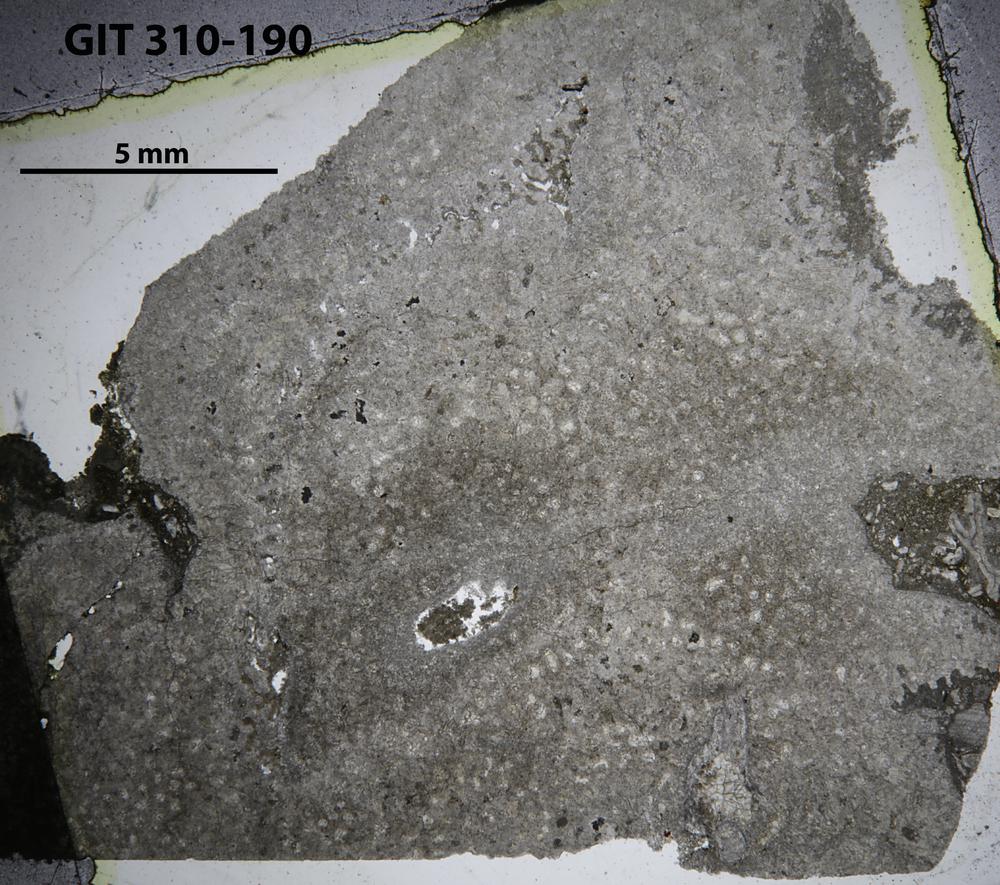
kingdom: Animalia
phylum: Porifera
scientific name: Porifera
